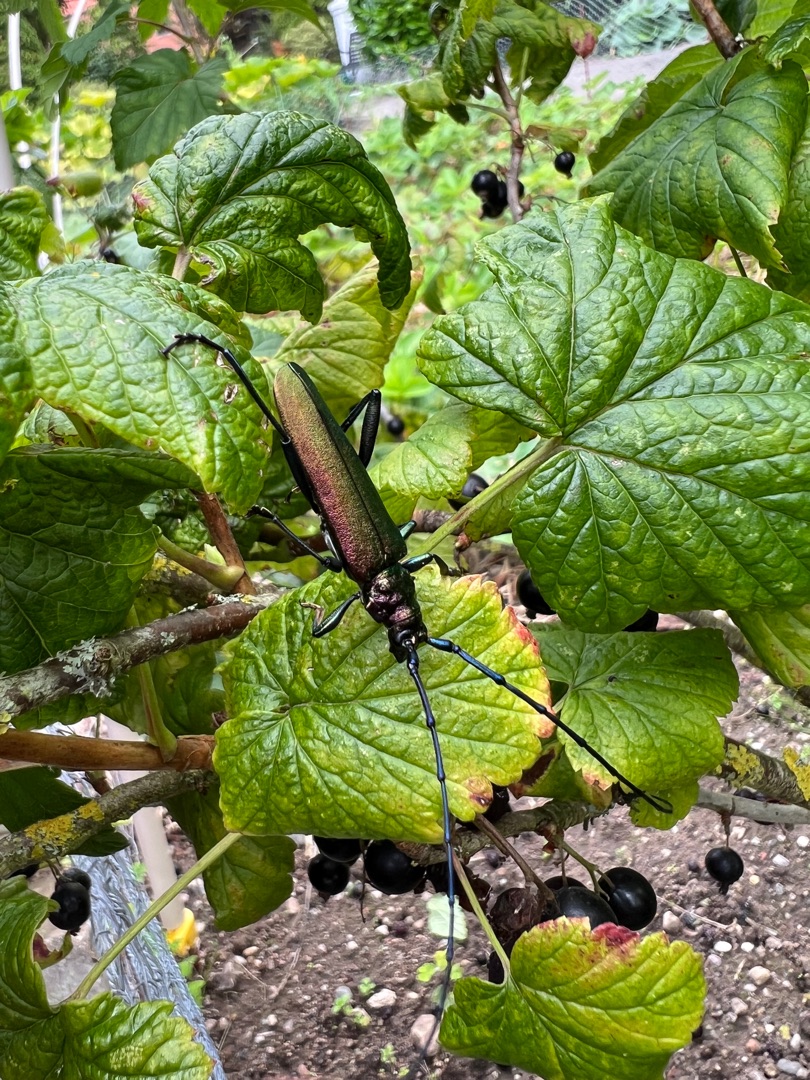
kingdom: Animalia
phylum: Arthropoda
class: Insecta
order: Coleoptera
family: Cerambycidae
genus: Aromia
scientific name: Aromia moschata
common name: Moskusbuk
